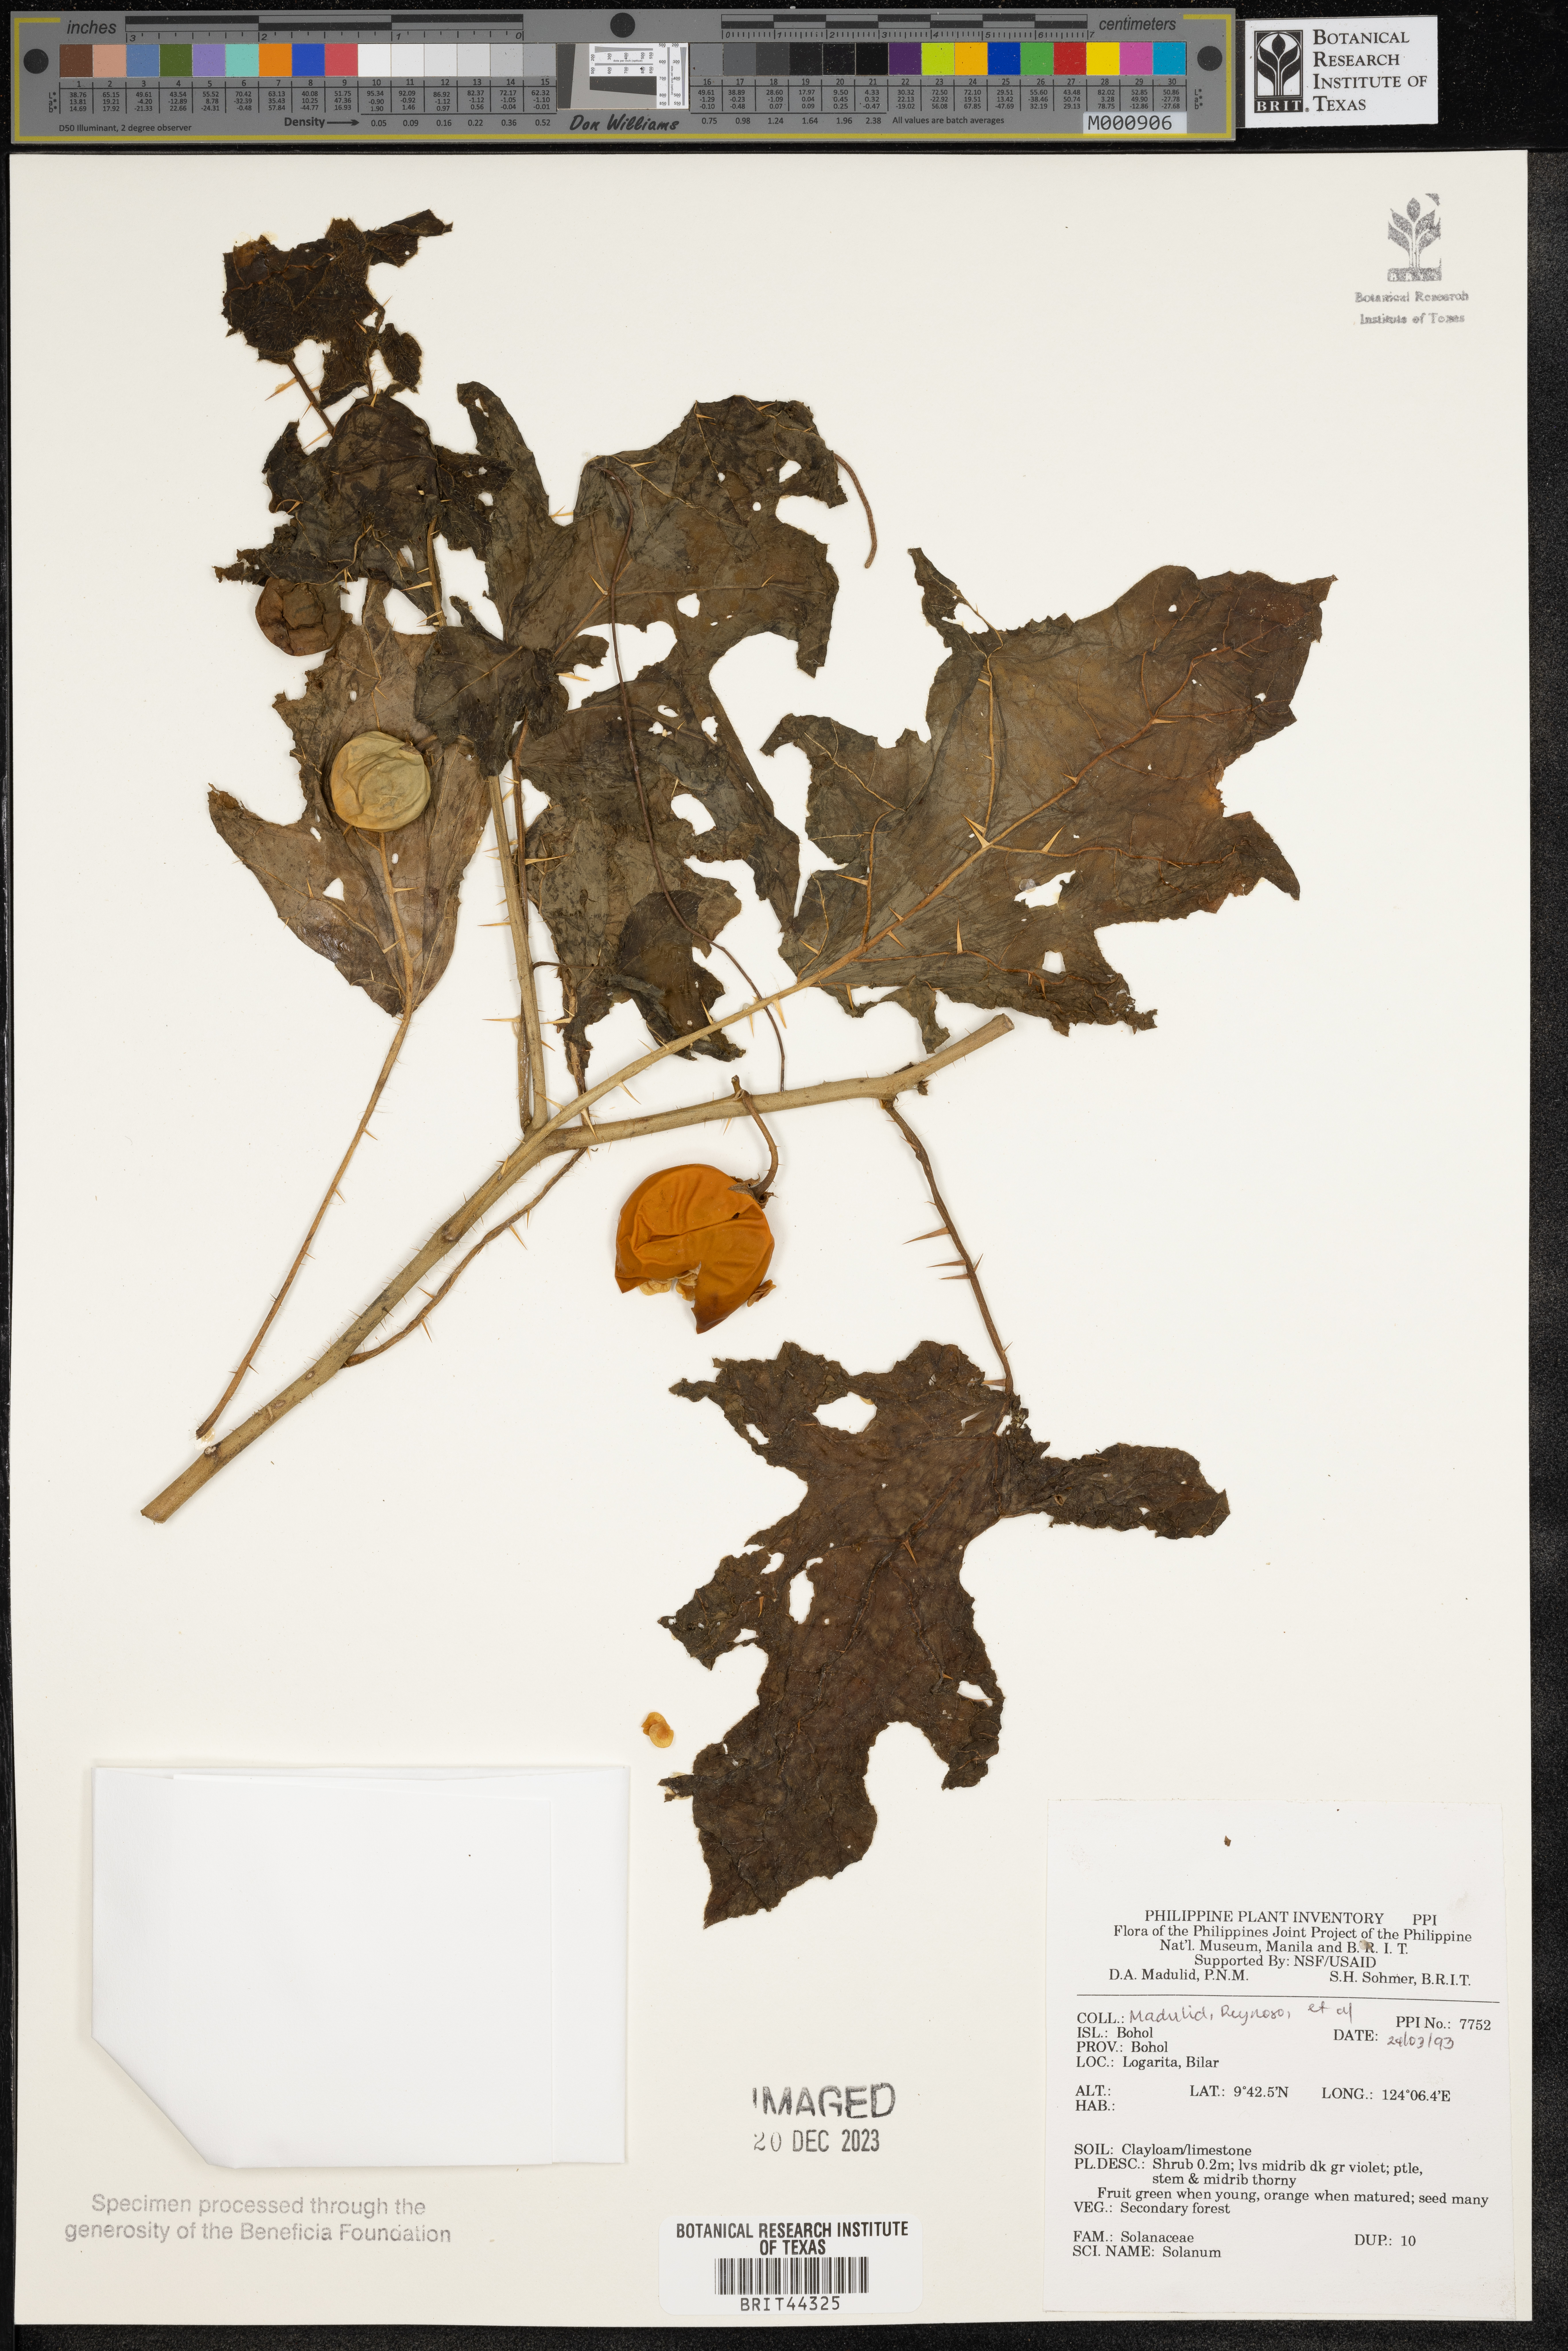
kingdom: Plantae
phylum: Tracheophyta
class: Magnoliopsida
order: Solanales
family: Solanaceae
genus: Solanum
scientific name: Solanum
